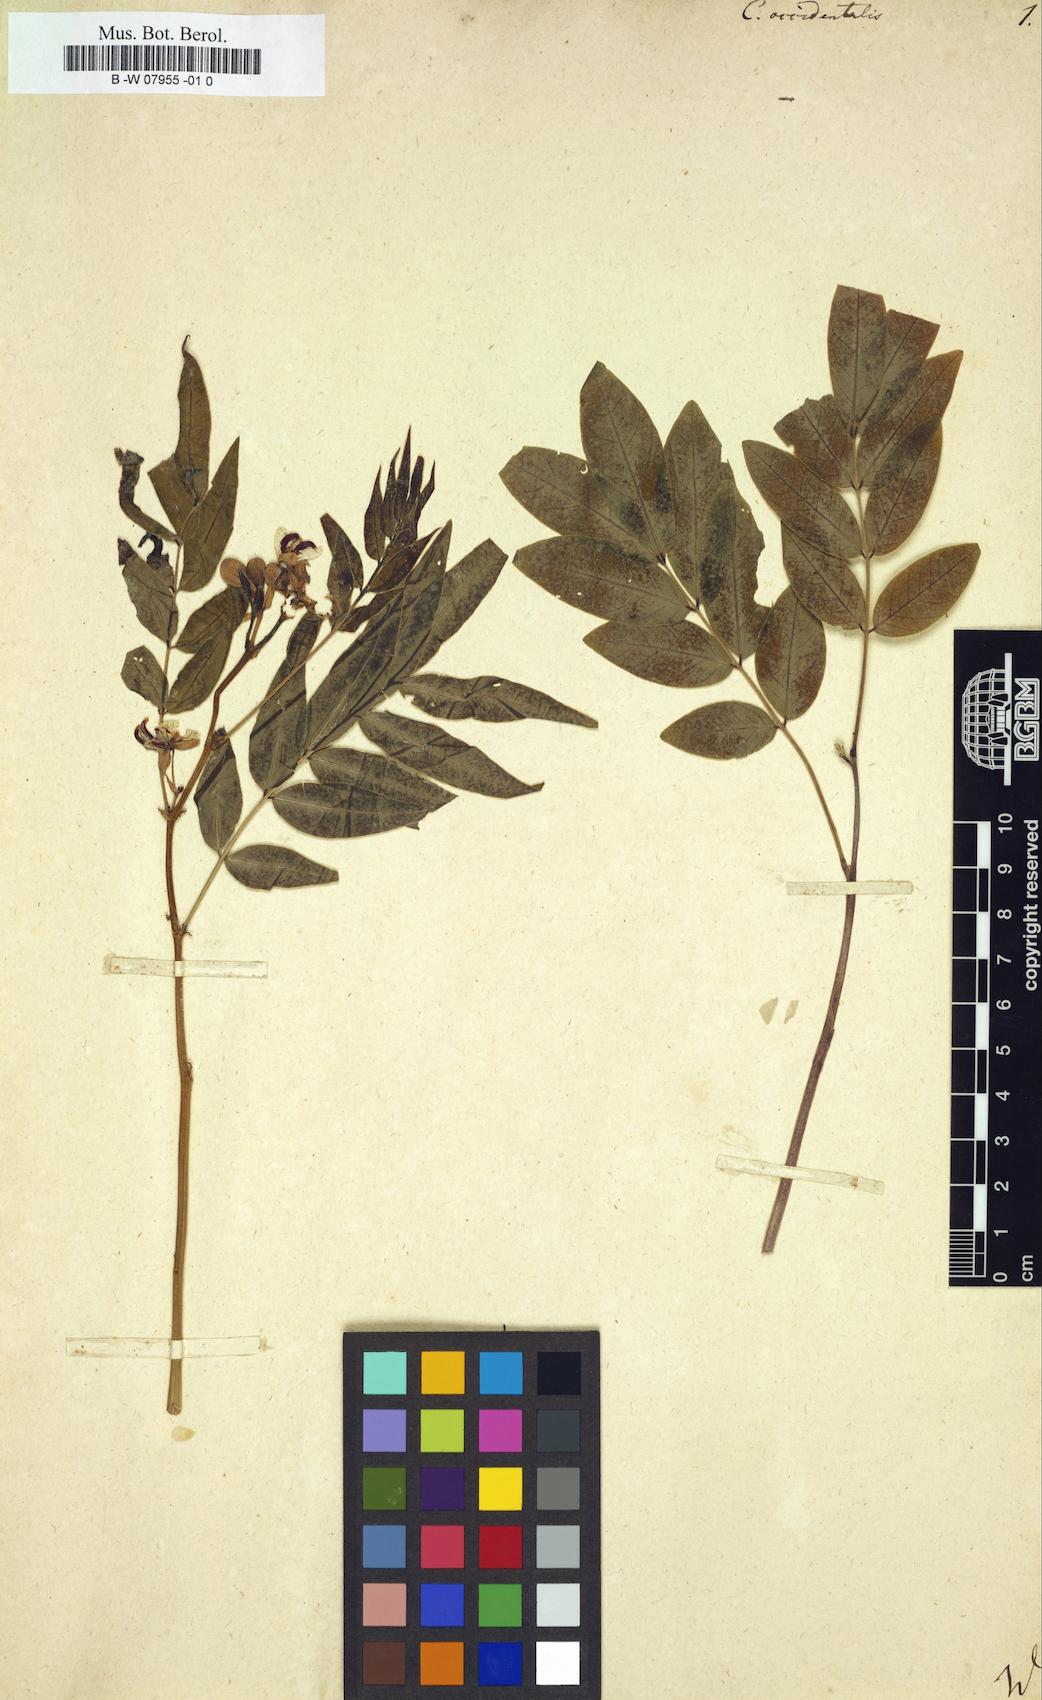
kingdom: Plantae
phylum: Tracheophyta
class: Magnoliopsida
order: Fabales
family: Fabaceae
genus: Senna
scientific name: Senna occidentalis
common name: Septicweed
